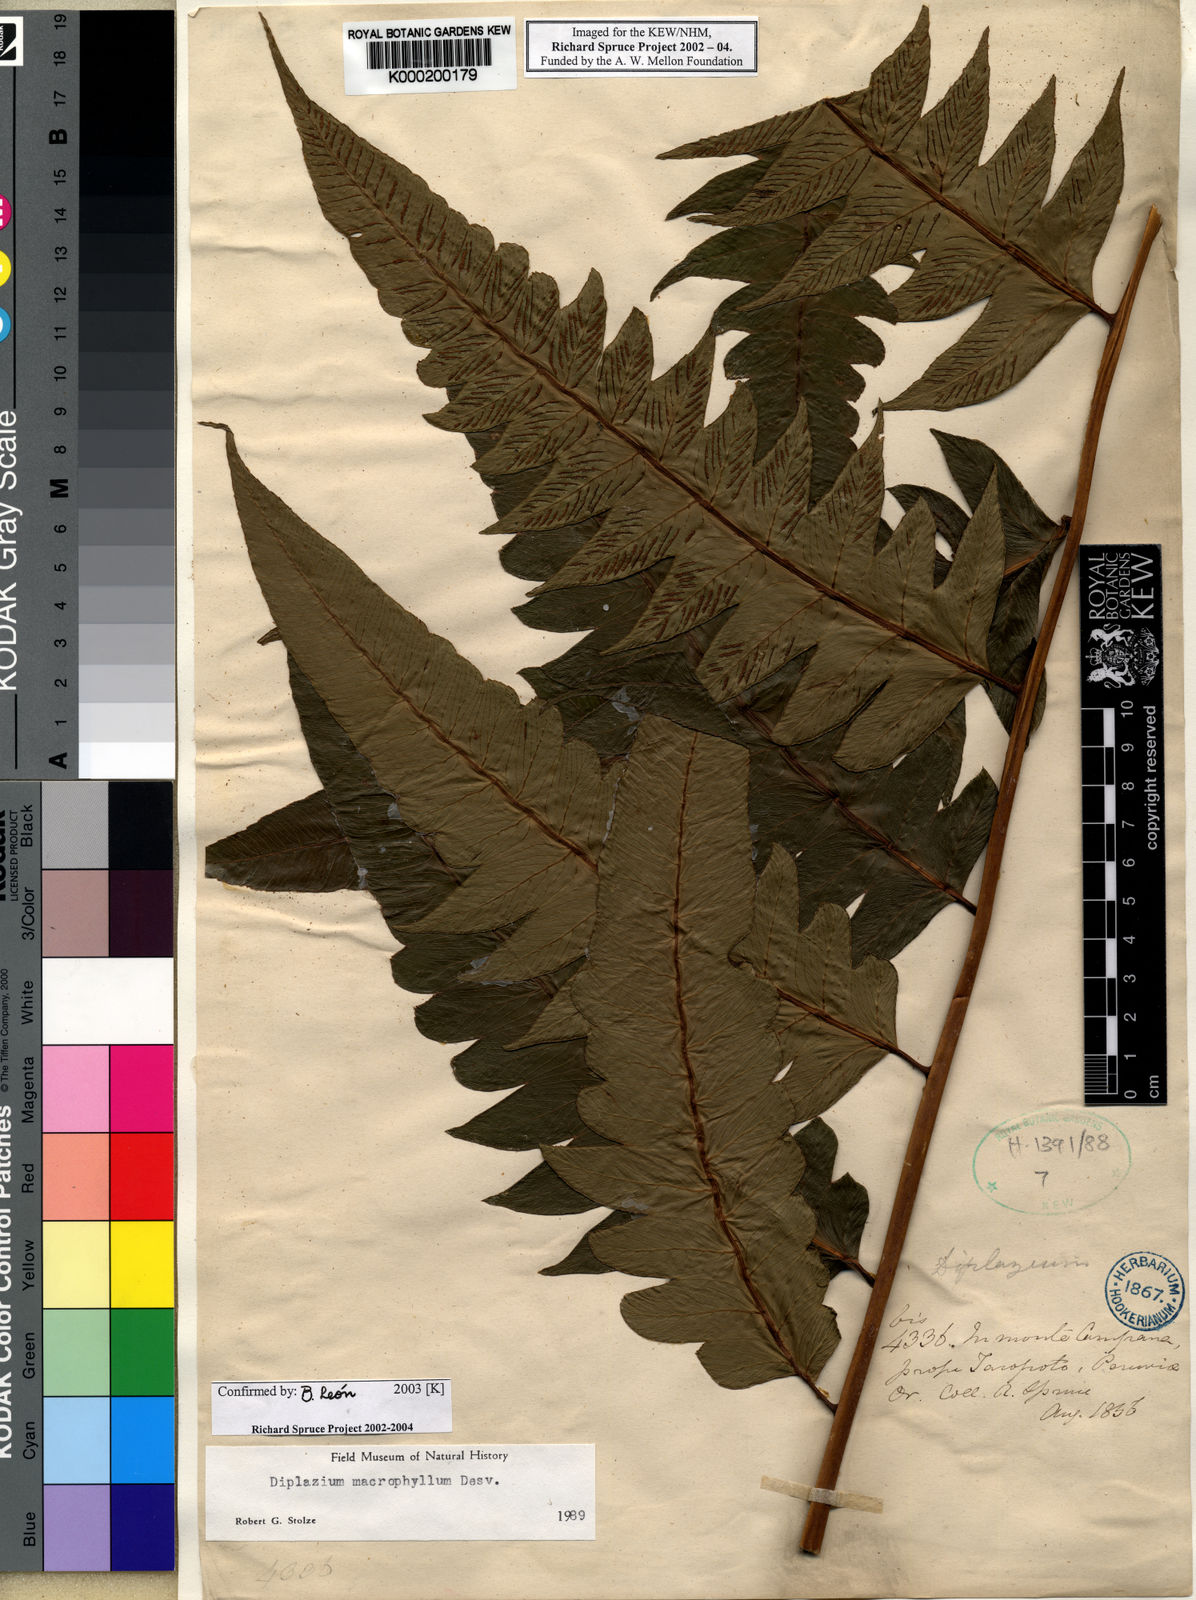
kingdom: Plantae
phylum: Tracheophyta
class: Polypodiopsida
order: Polypodiales
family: Athyriaceae
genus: Diplazium
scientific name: Diplazium macrophyllum
